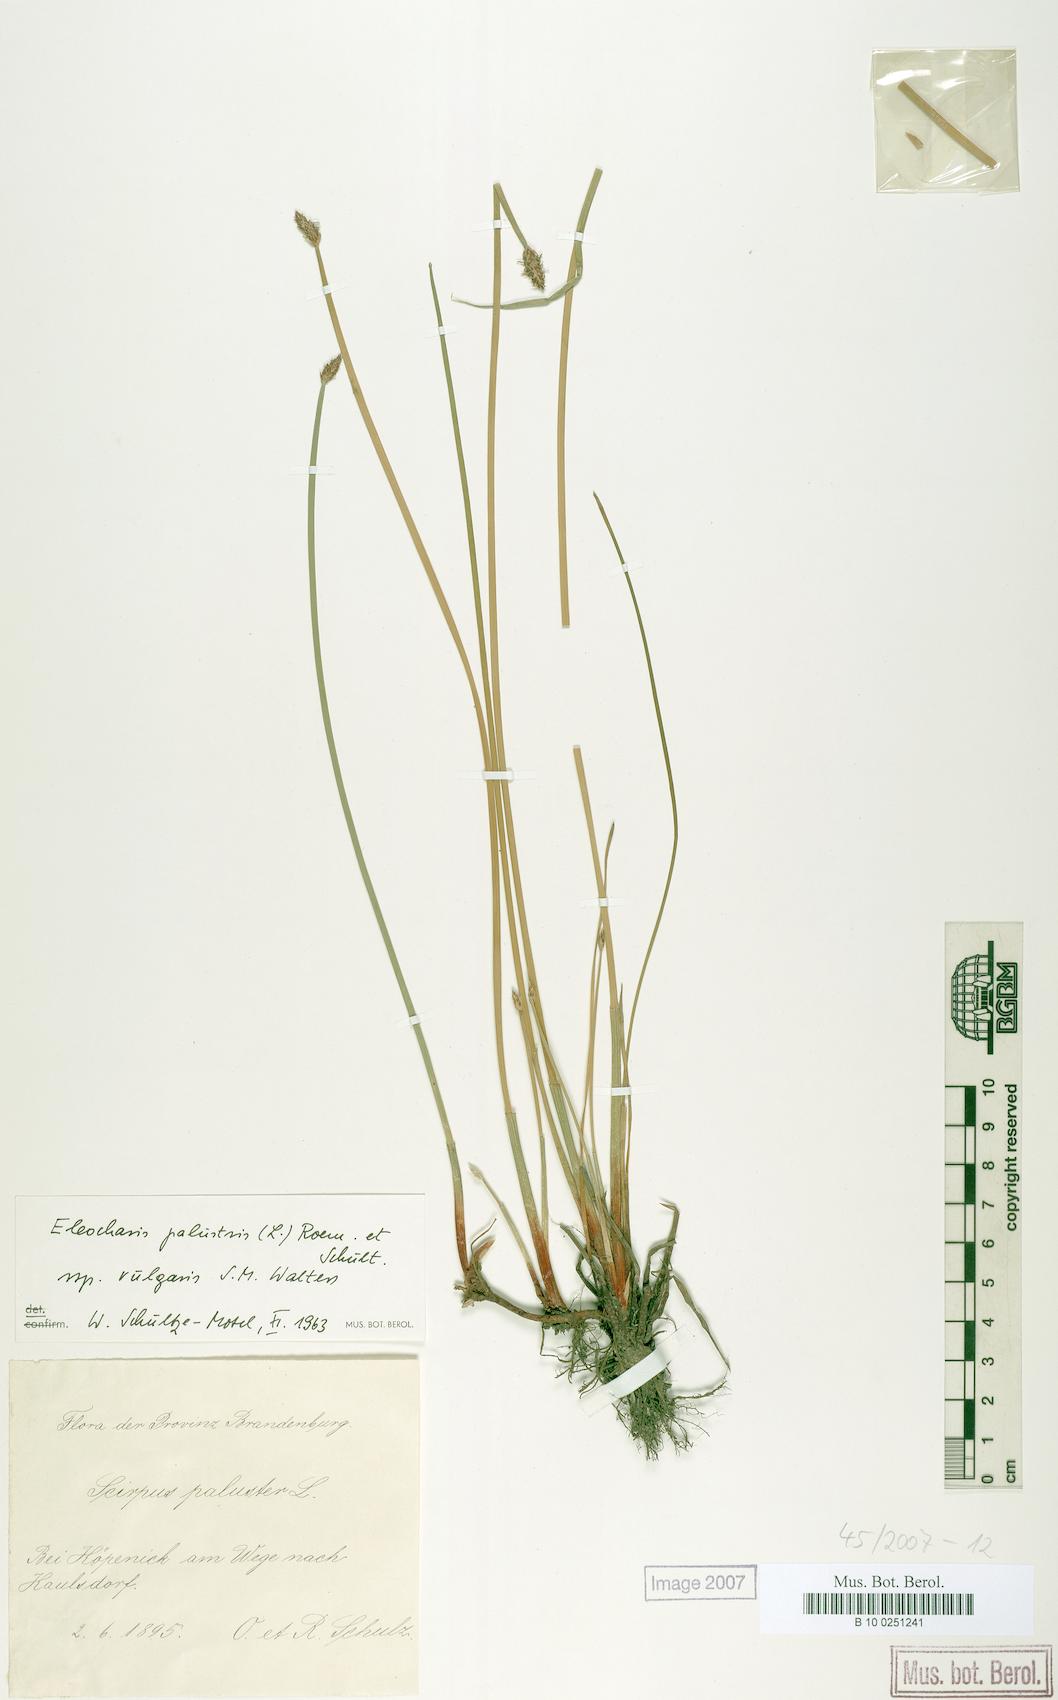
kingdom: Plantae
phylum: Tracheophyta
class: Liliopsida
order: Poales
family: Cyperaceae
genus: Eleocharis
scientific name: Eleocharis palustris
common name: Common spike-rush
